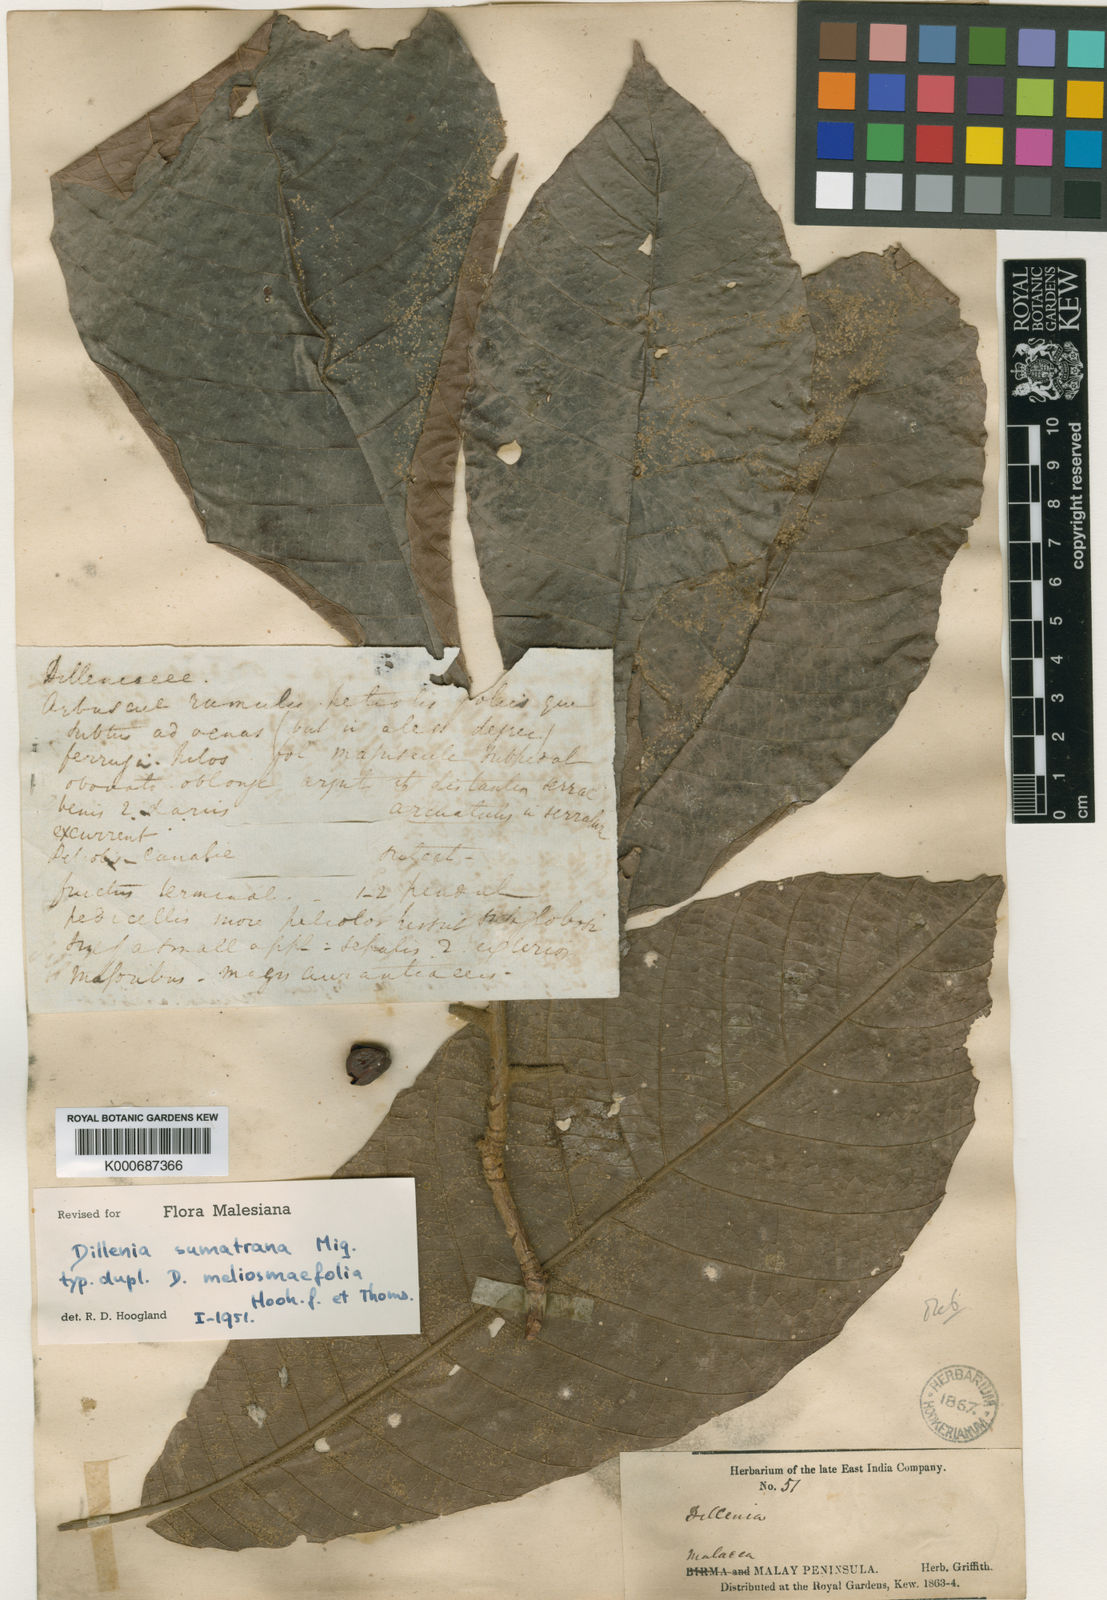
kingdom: Plantae
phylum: Tracheophyta
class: Magnoliopsida
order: Dilleniales
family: Dilleniaceae
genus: Dillenia
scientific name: Dillenia sumatrana
